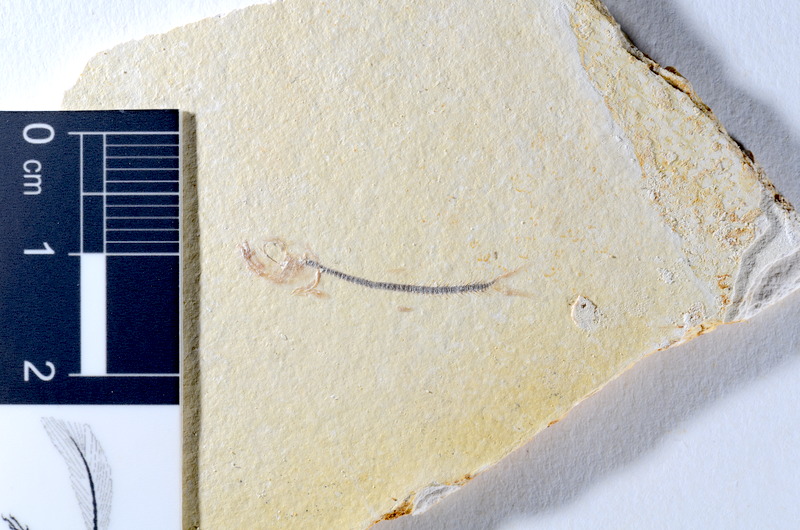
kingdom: Animalia
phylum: Chordata
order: Salmoniformes
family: Orthogonikleithridae
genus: Orthogonikleithrus
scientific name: Orthogonikleithrus hoelli
